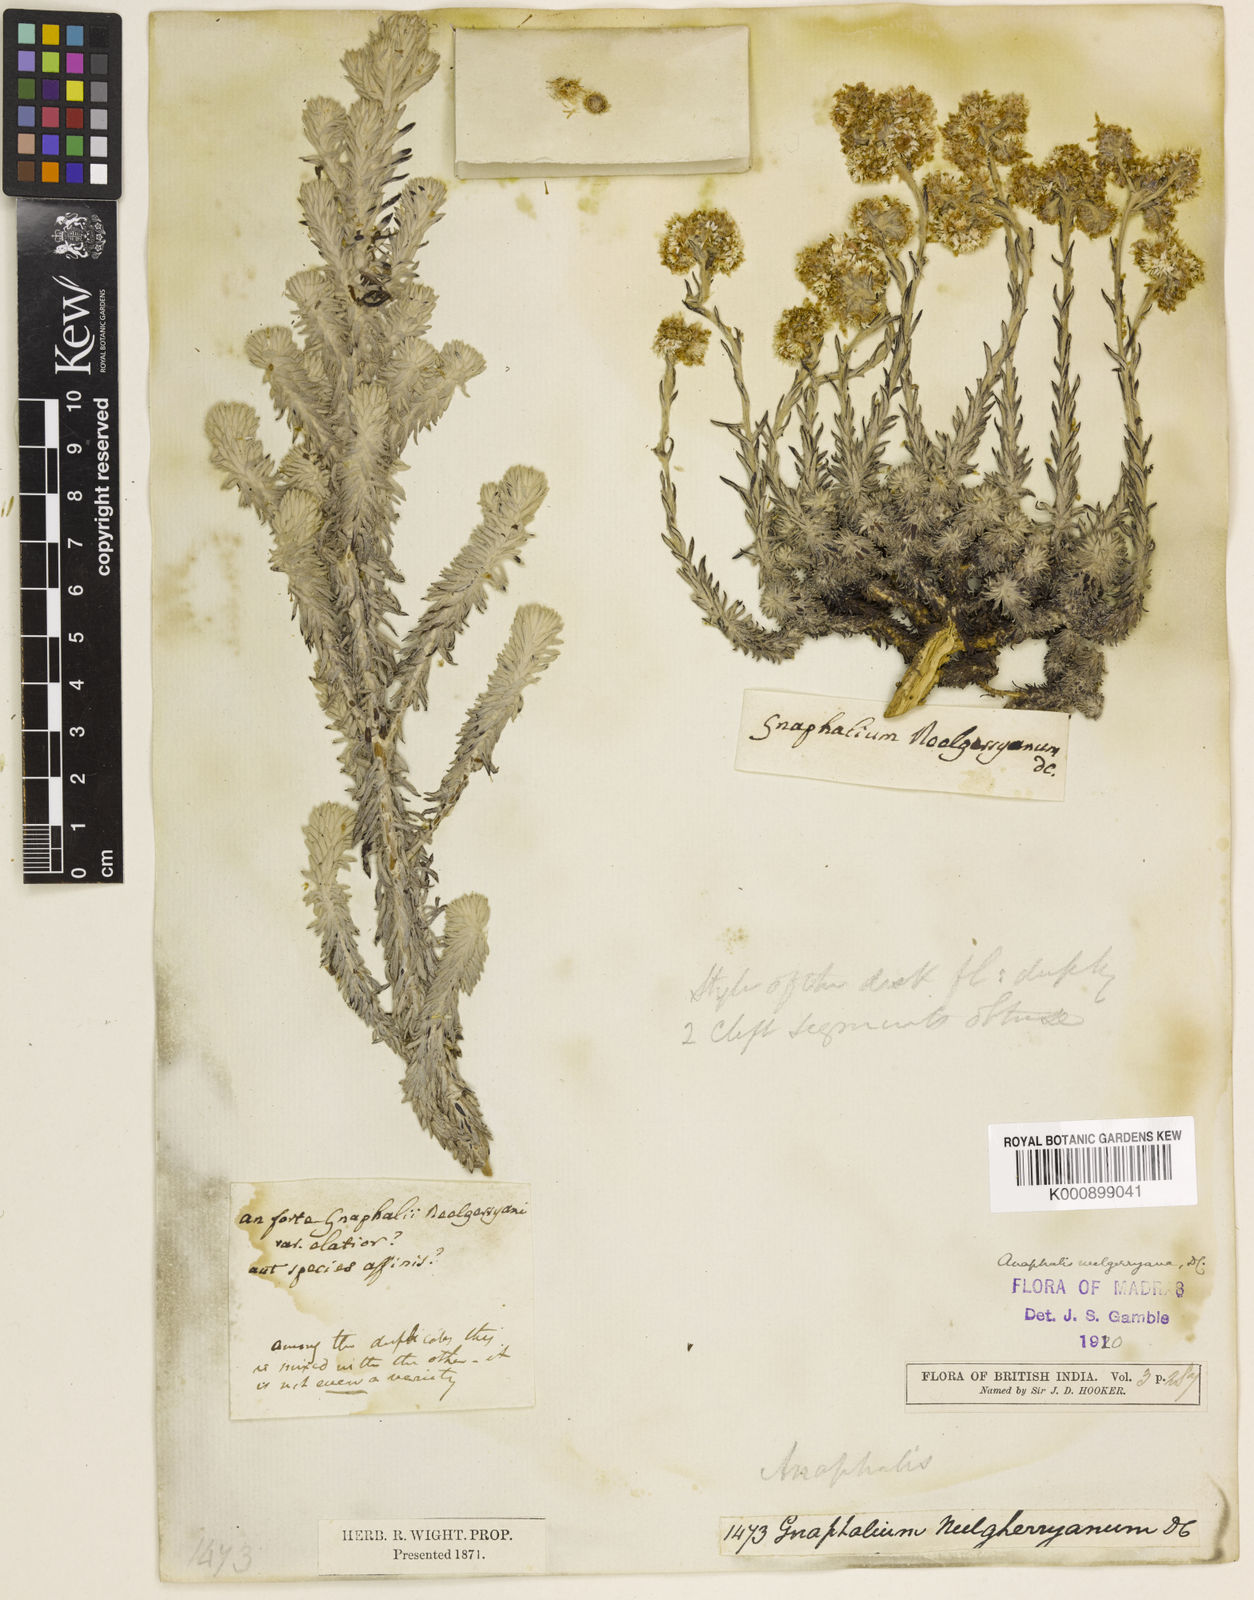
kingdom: Plantae
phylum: Tracheophyta
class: Magnoliopsida
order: Asterales
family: Asteraceae
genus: Anaphalis
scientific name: Anaphalis neelgerryana
